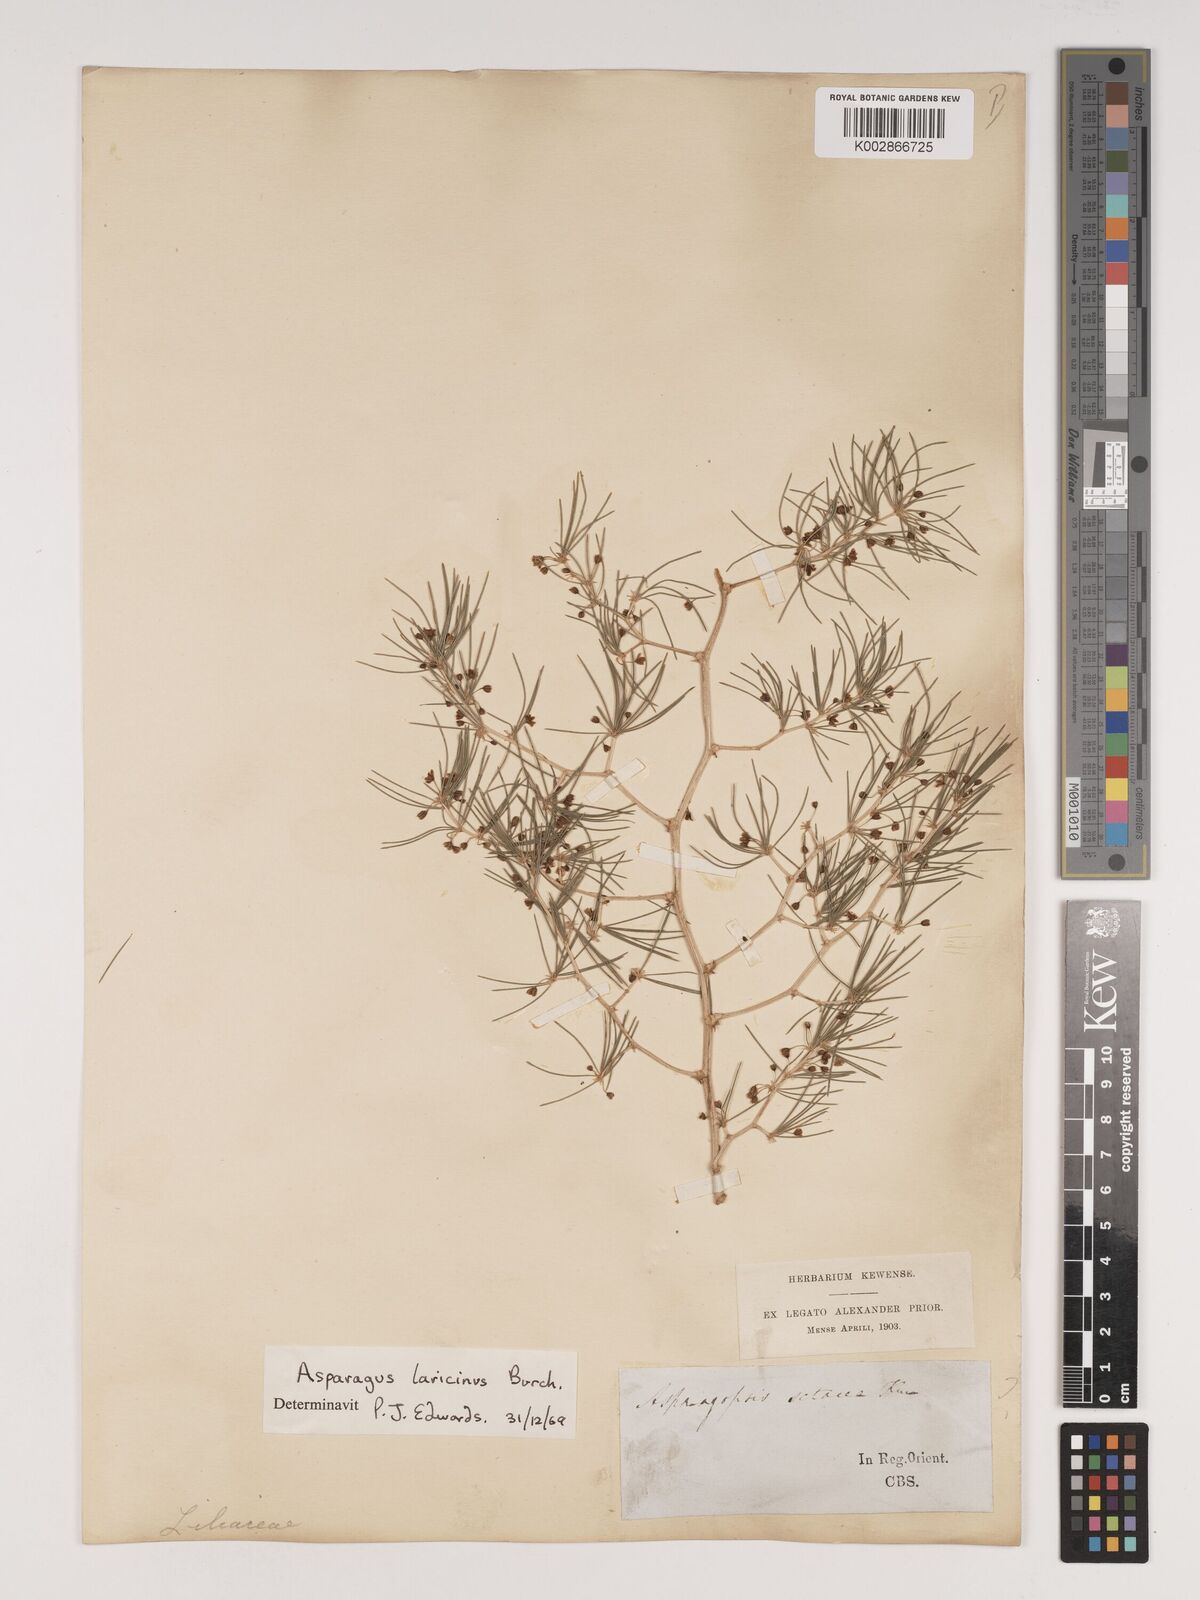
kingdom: Plantae
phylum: Tracheophyta
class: Liliopsida
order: Asparagales
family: Asparagaceae
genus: Asparagus
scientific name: Asparagus laricinus
